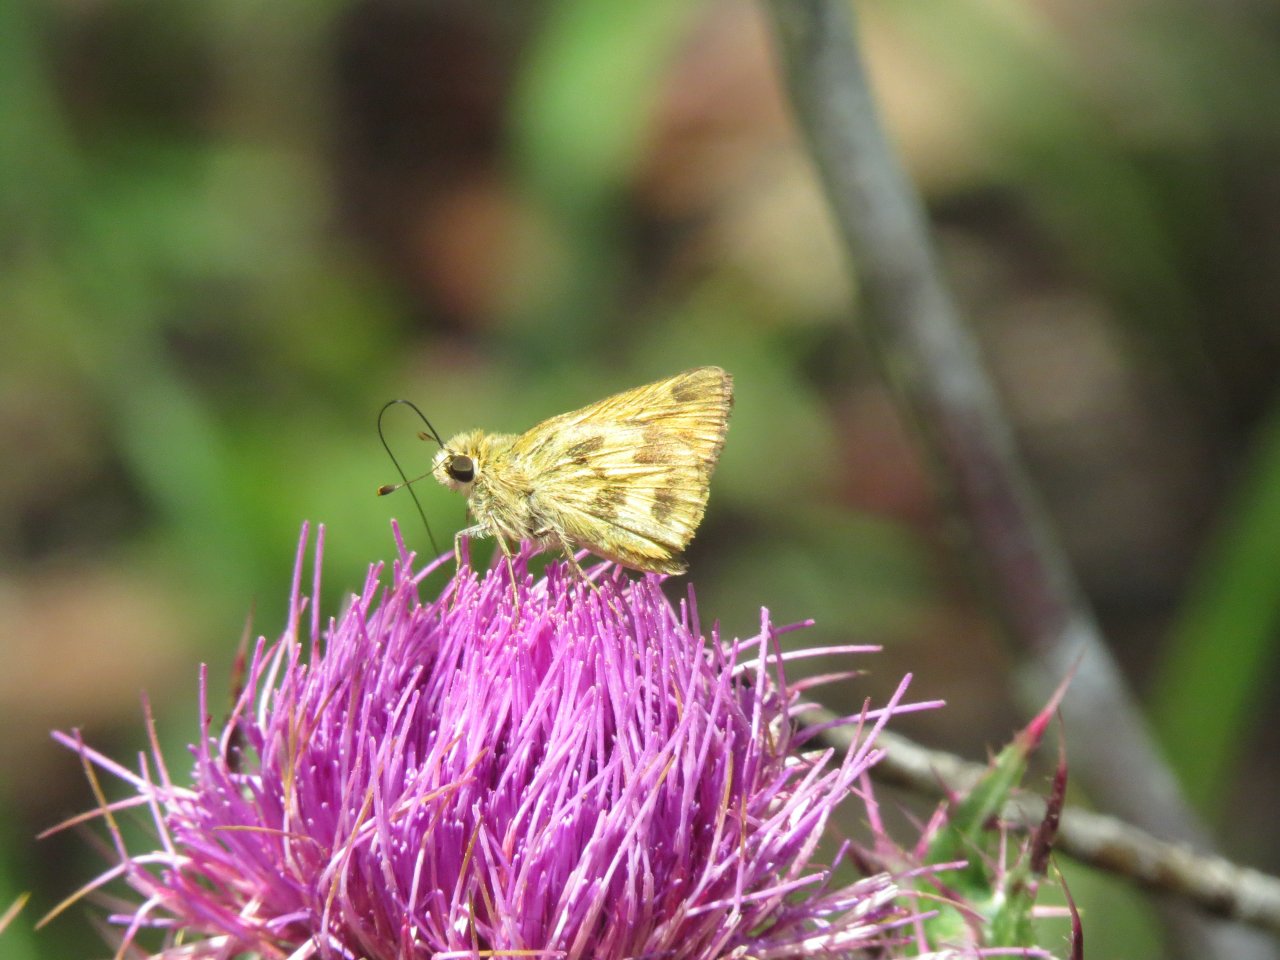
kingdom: Animalia
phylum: Arthropoda
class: Insecta
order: Lepidoptera
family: Hesperiidae
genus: Polites
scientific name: Polites vibex
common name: Whirlabout
